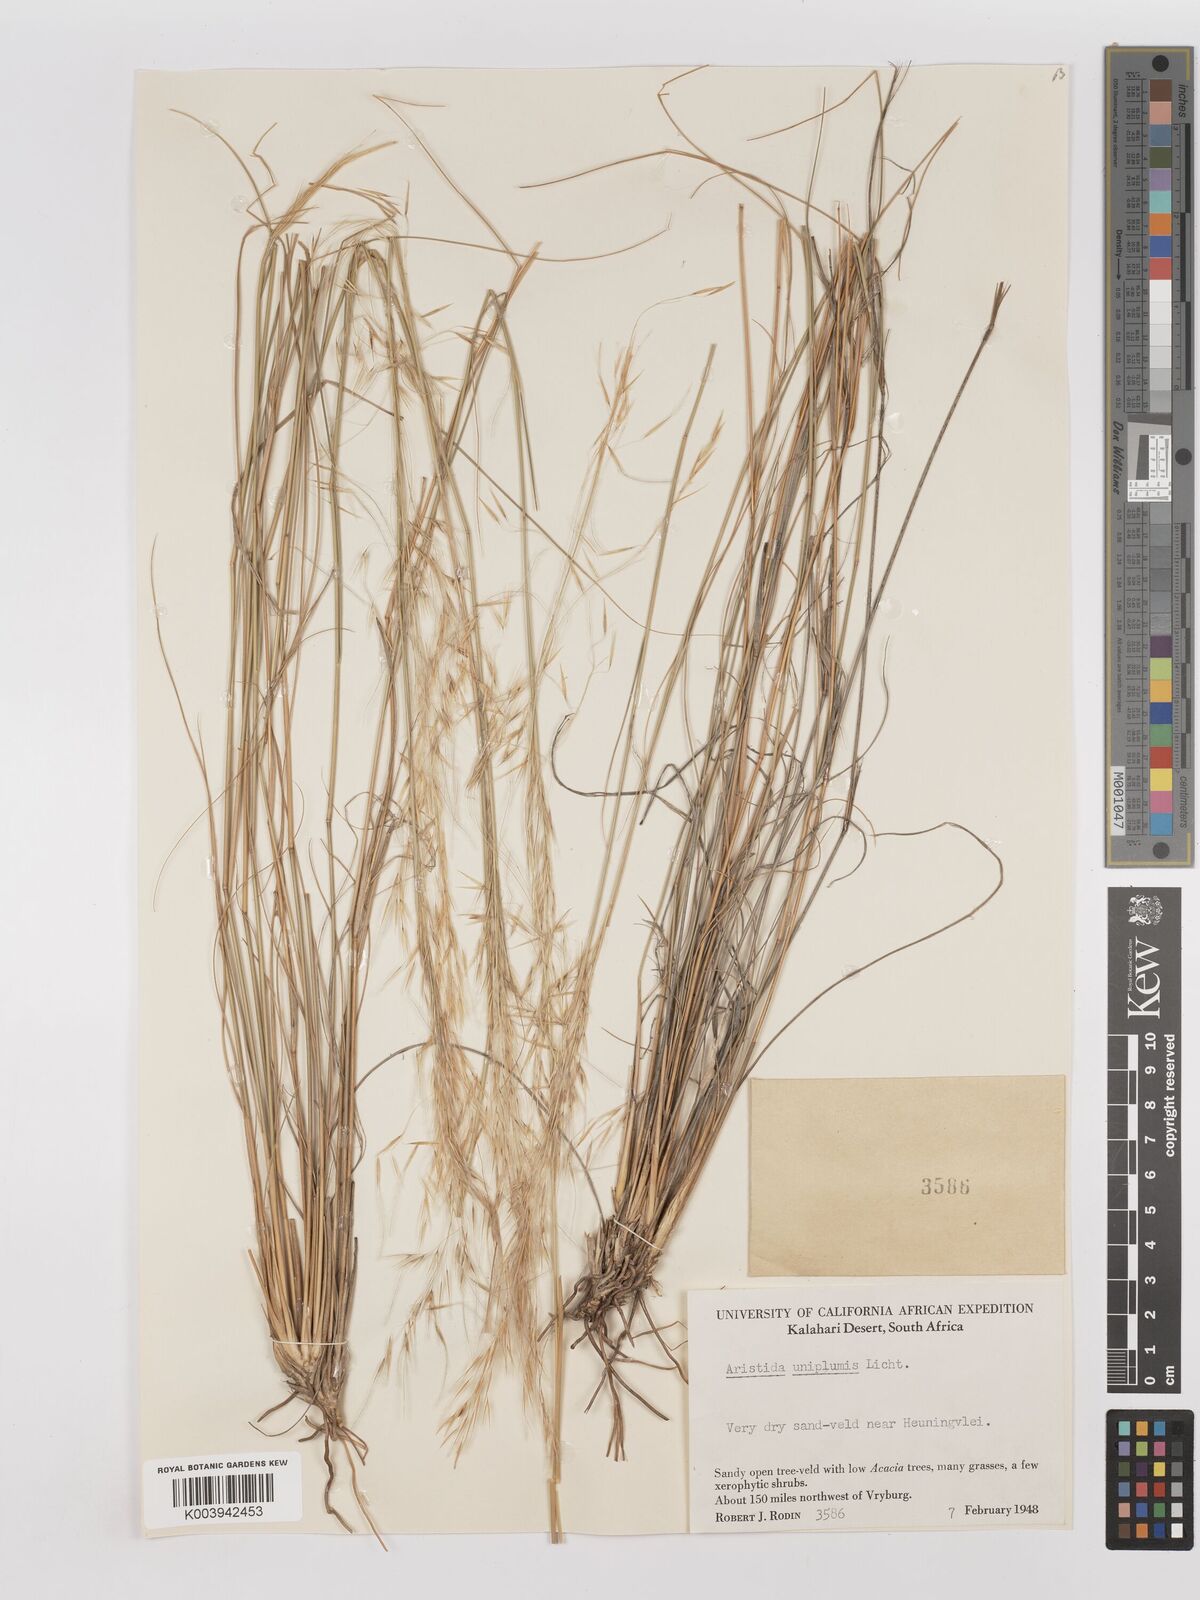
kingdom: Plantae
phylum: Tracheophyta
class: Liliopsida
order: Poales
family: Poaceae
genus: Stipagrostis
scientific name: Stipagrostis uniplumis
